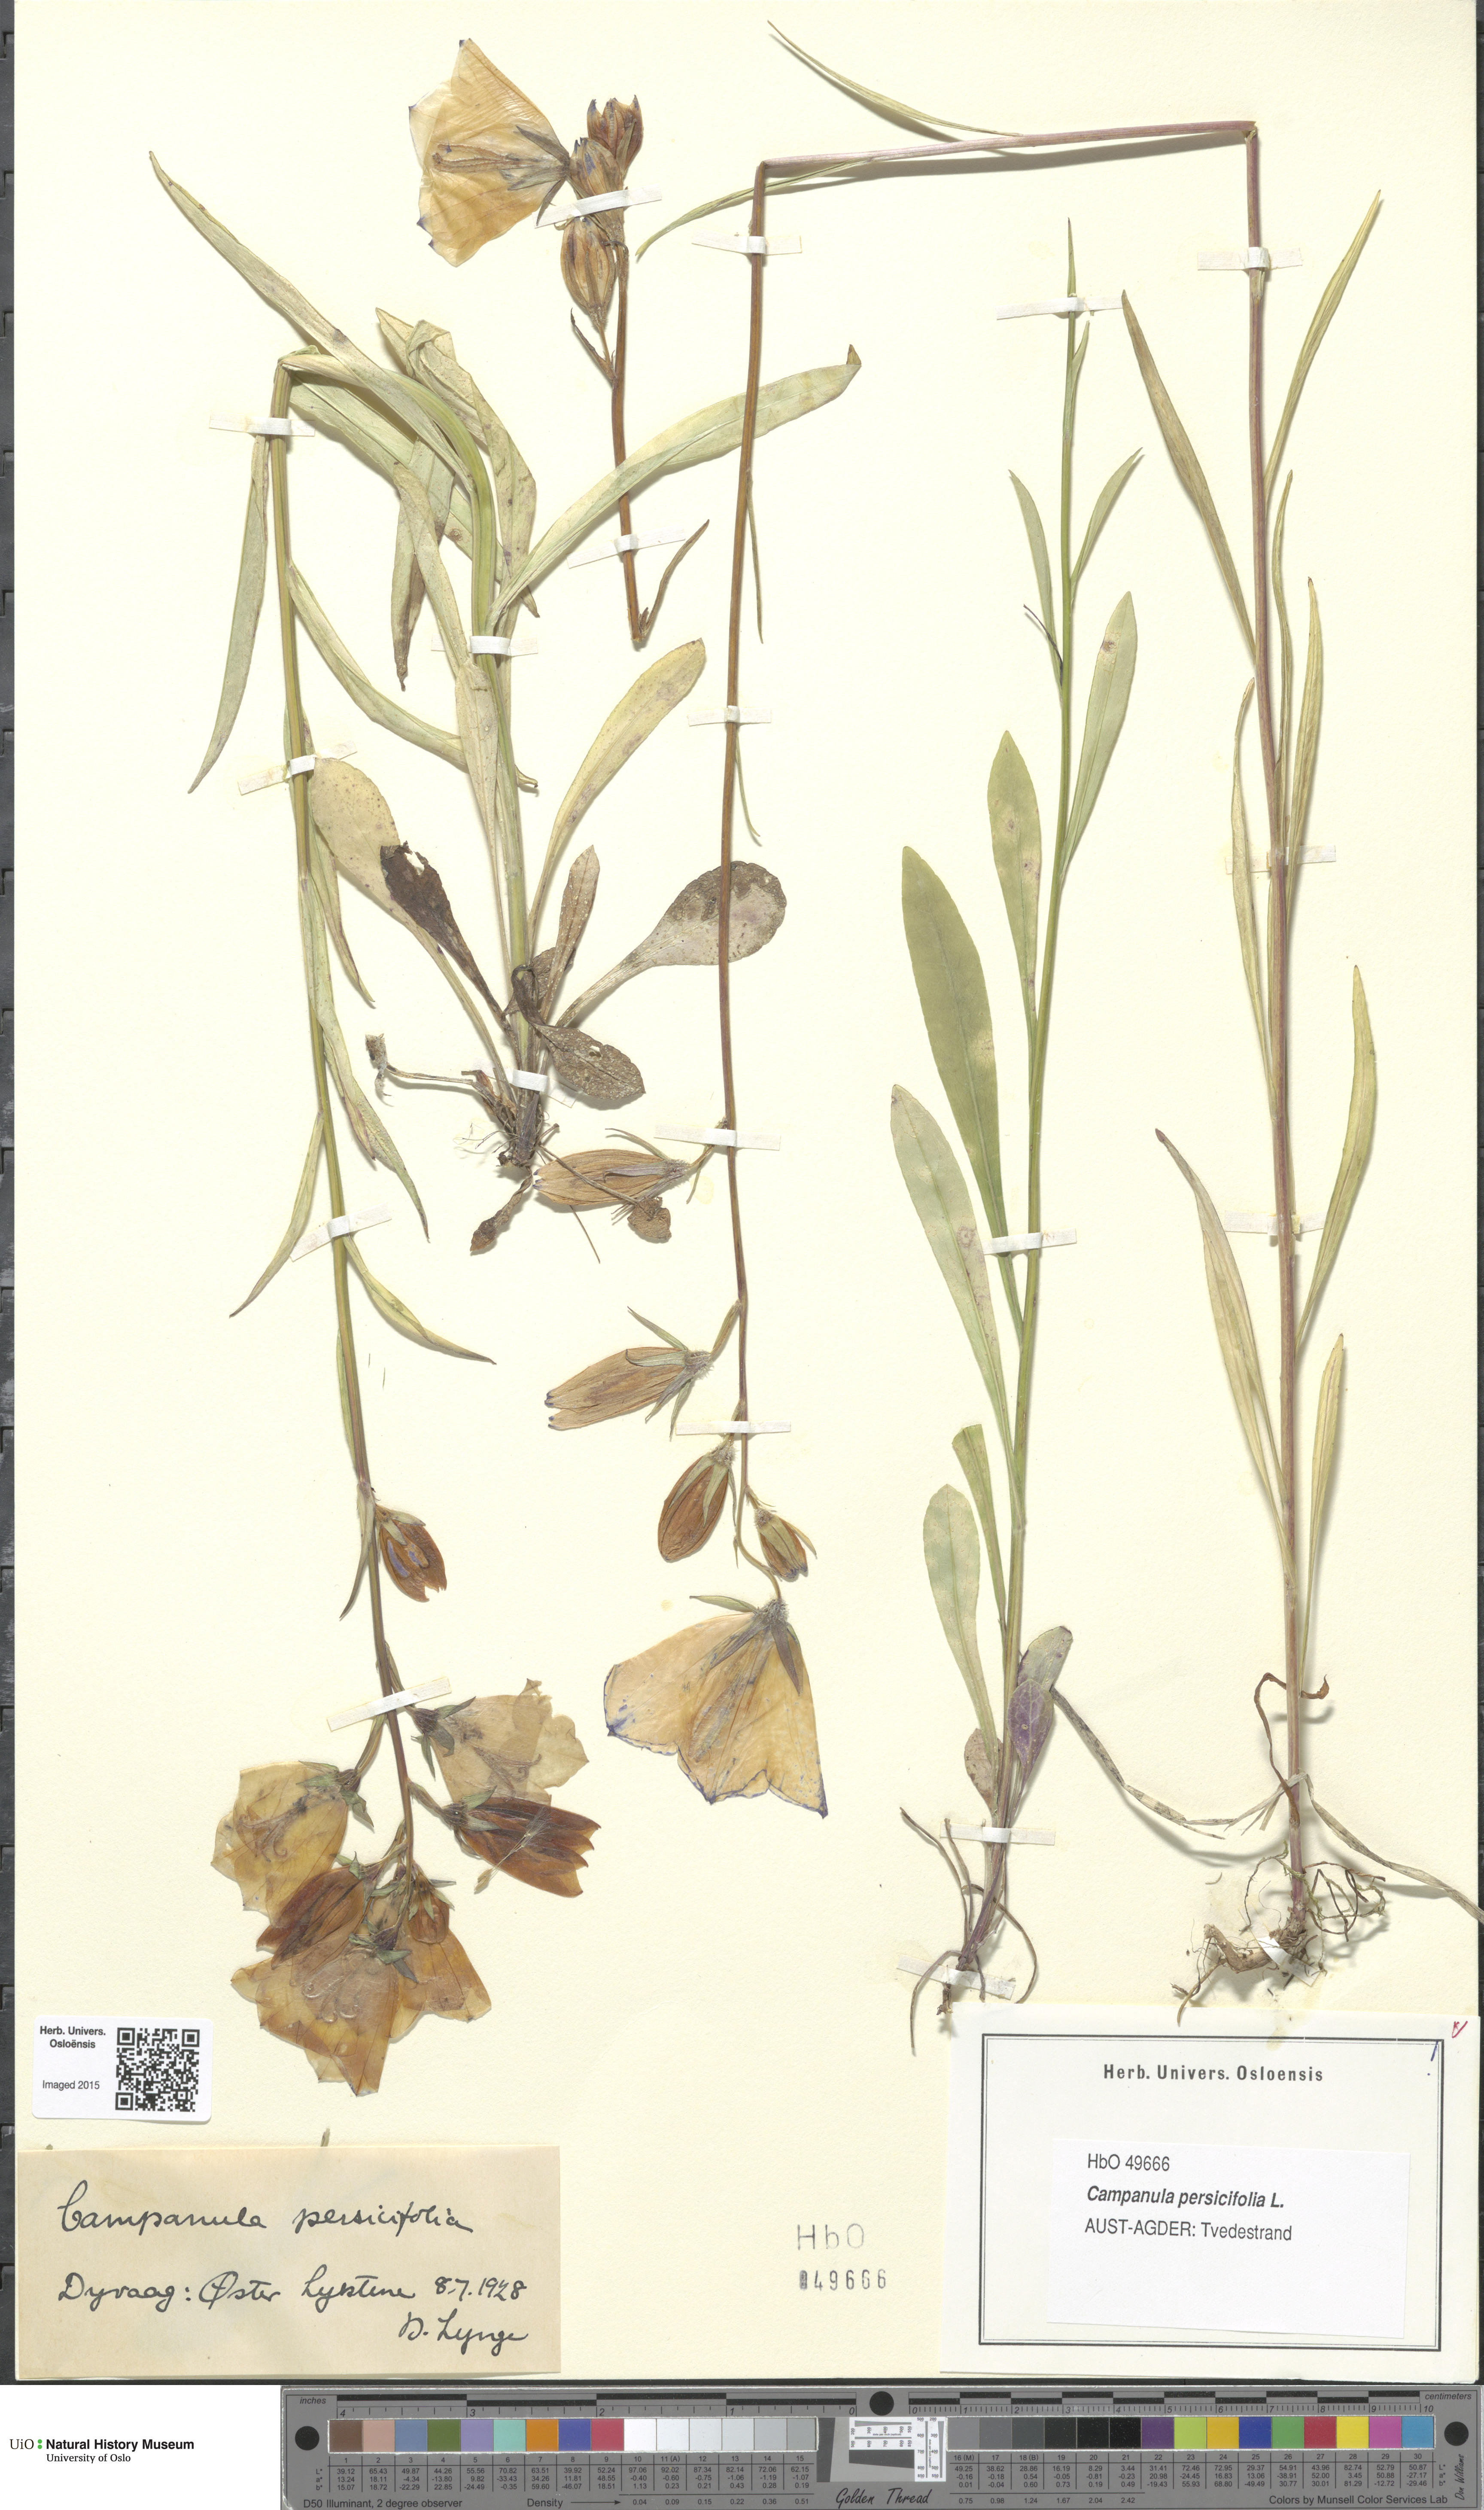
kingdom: Plantae
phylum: Tracheophyta
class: Magnoliopsida
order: Asterales
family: Campanulaceae
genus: Campanula
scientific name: Campanula persicifolia
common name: Peach-leaved bellflower
